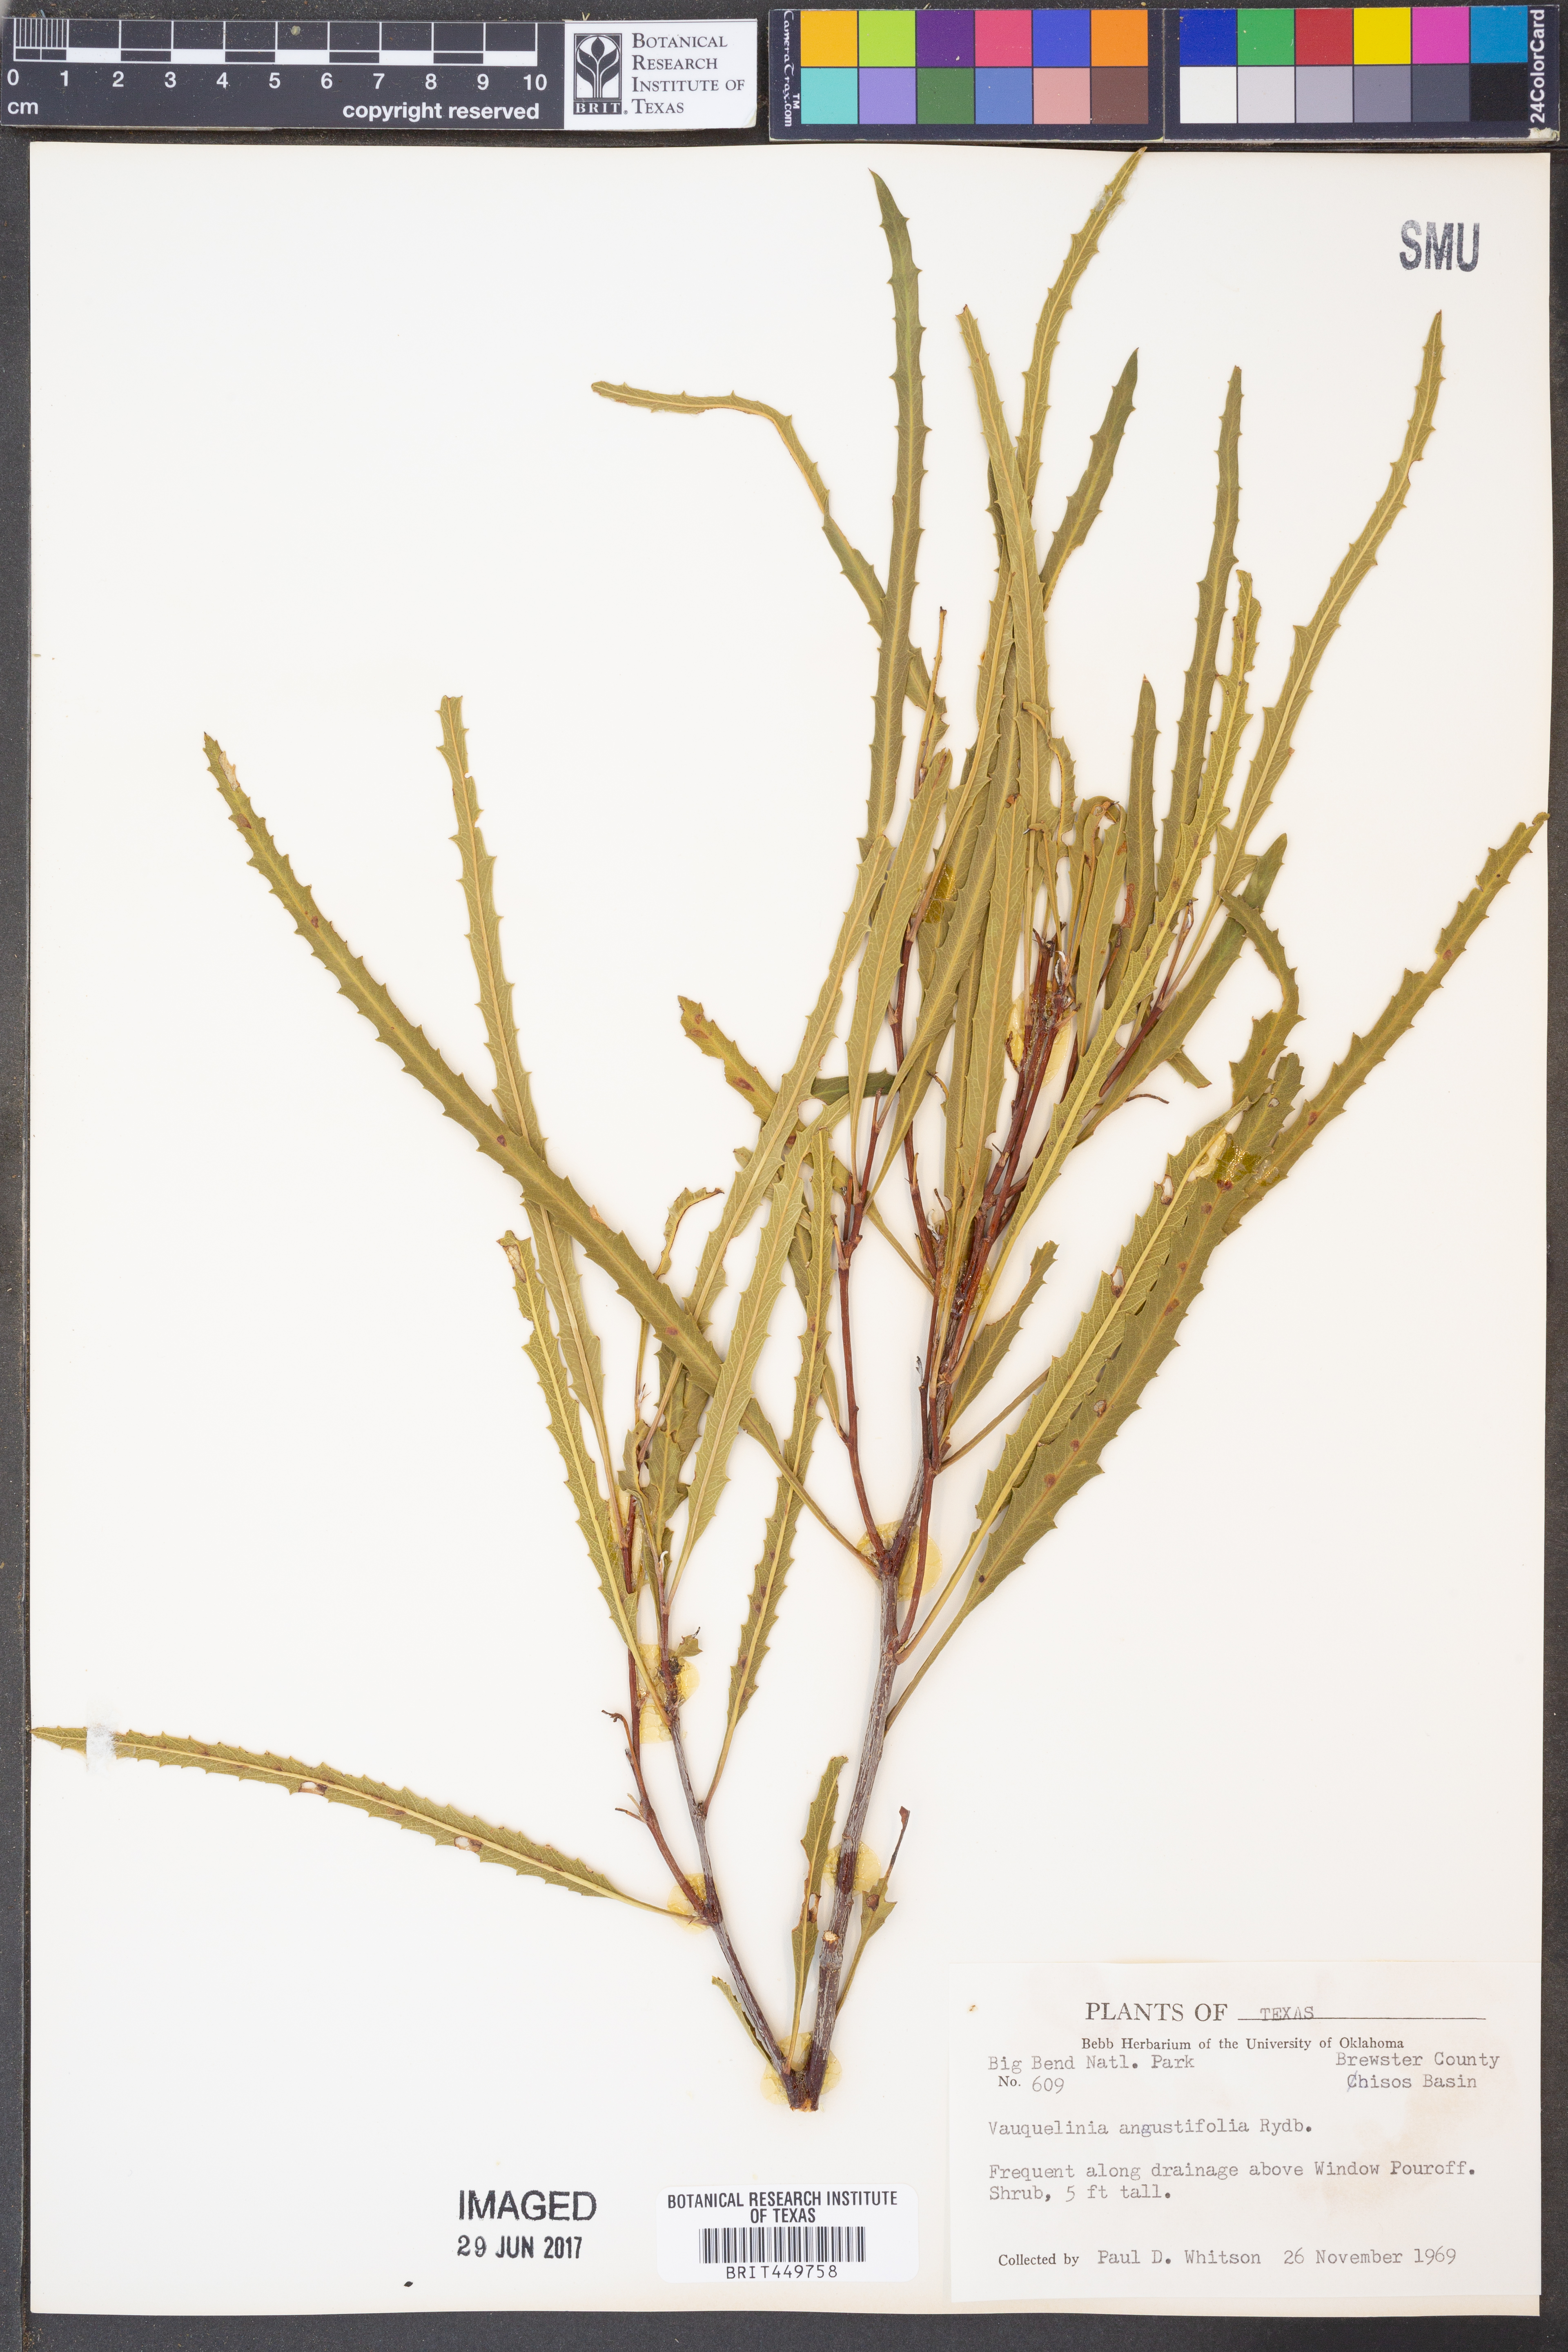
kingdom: Plantae
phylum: Tracheophyta
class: Magnoliopsida
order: Rosales
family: Rosaceae
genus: Vauquelinia
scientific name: Vauquelinia corymbosa
